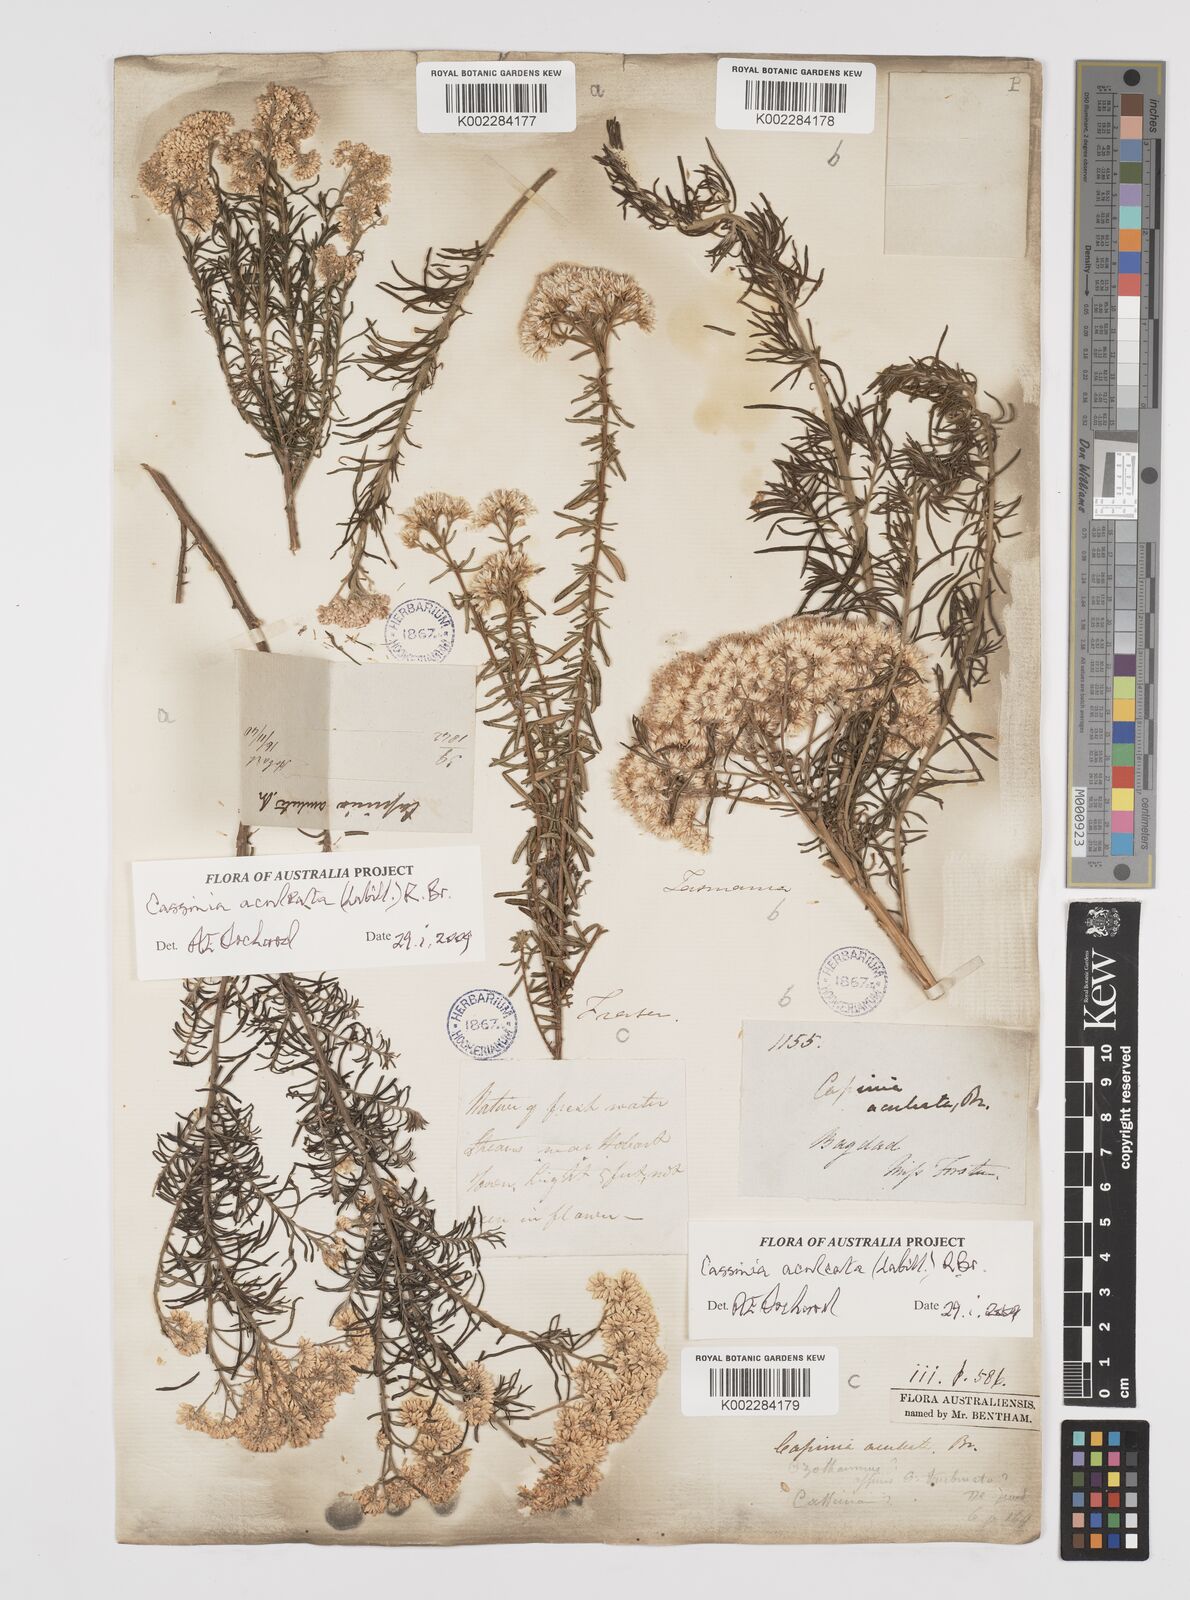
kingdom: Plantae
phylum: Tracheophyta
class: Magnoliopsida
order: Asterales
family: Asteraceae
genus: Cassinia
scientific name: Cassinia aculeata
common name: Australian tauhinu
